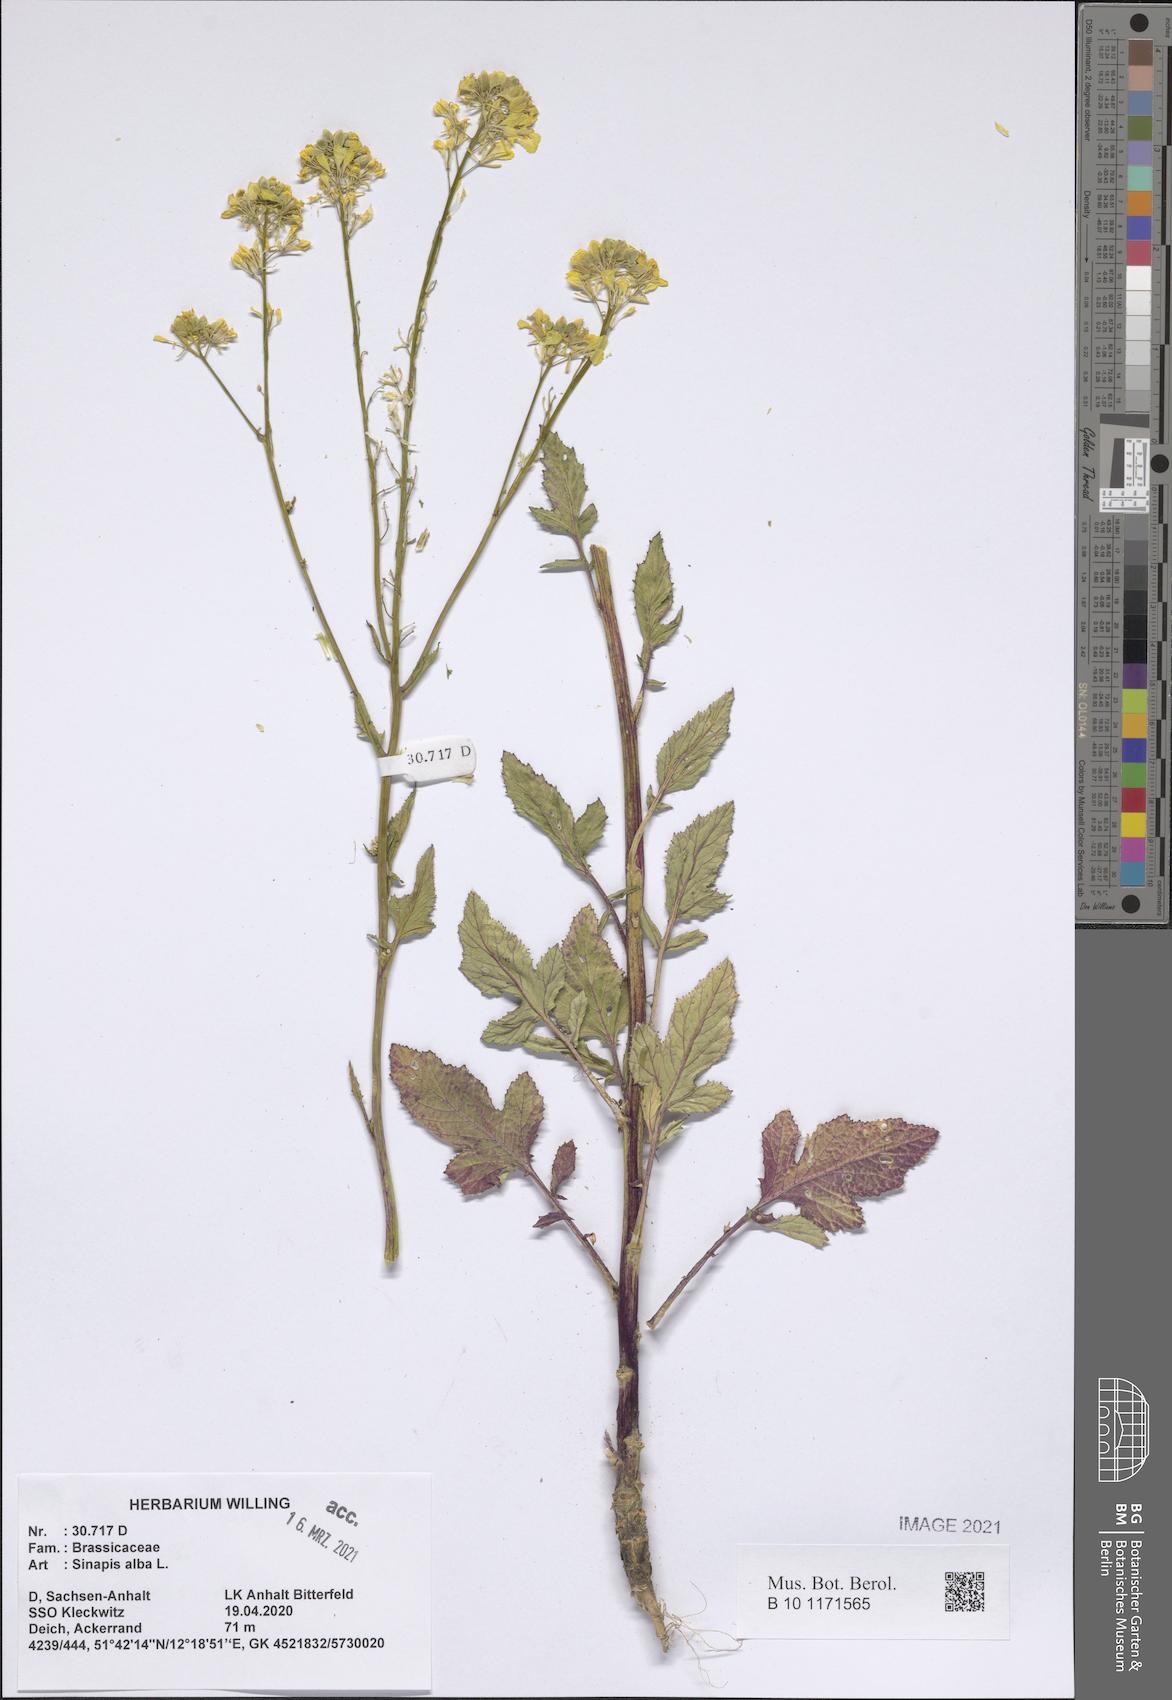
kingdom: Plantae
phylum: Tracheophyta
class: Magnoliopsida
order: Brassicales
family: Brassicaceae
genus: Sinapis
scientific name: Sinapis alba
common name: White mustard
